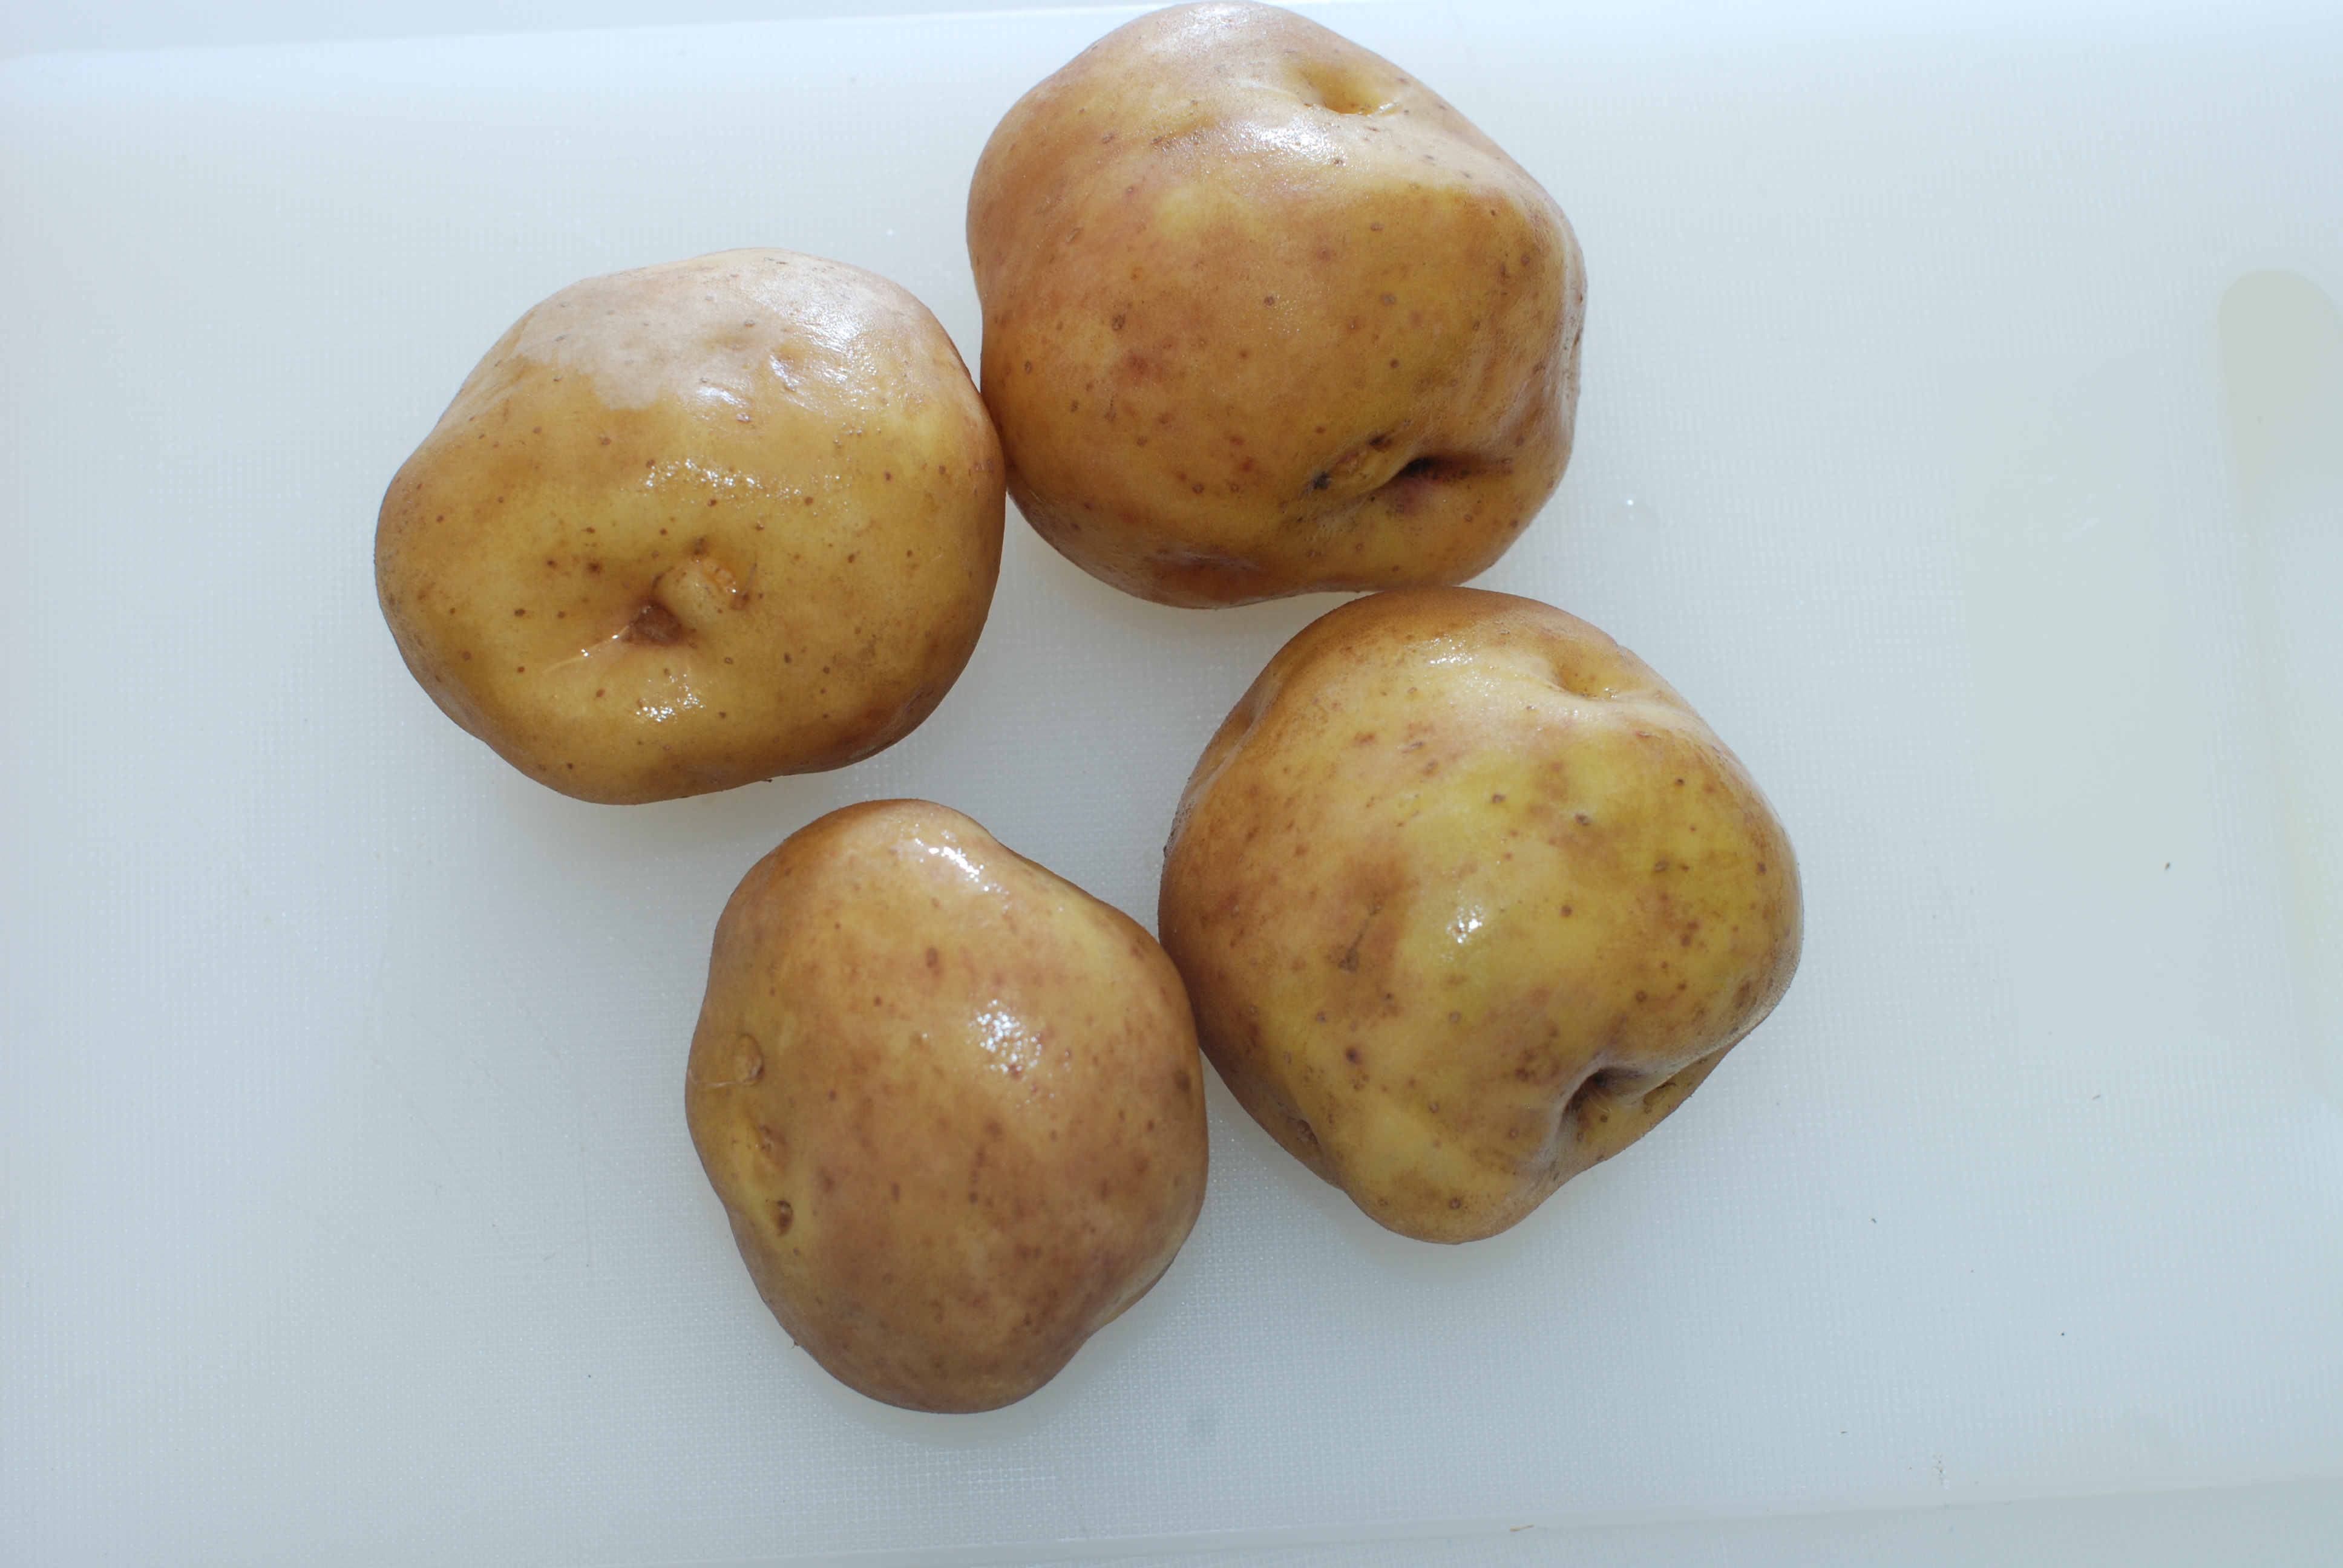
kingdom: Plantae
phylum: Tracheophyta
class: Magnoliopsida
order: Solanales
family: Solanaceae
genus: Solanum
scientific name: Solanum tuberosum
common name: Potato
